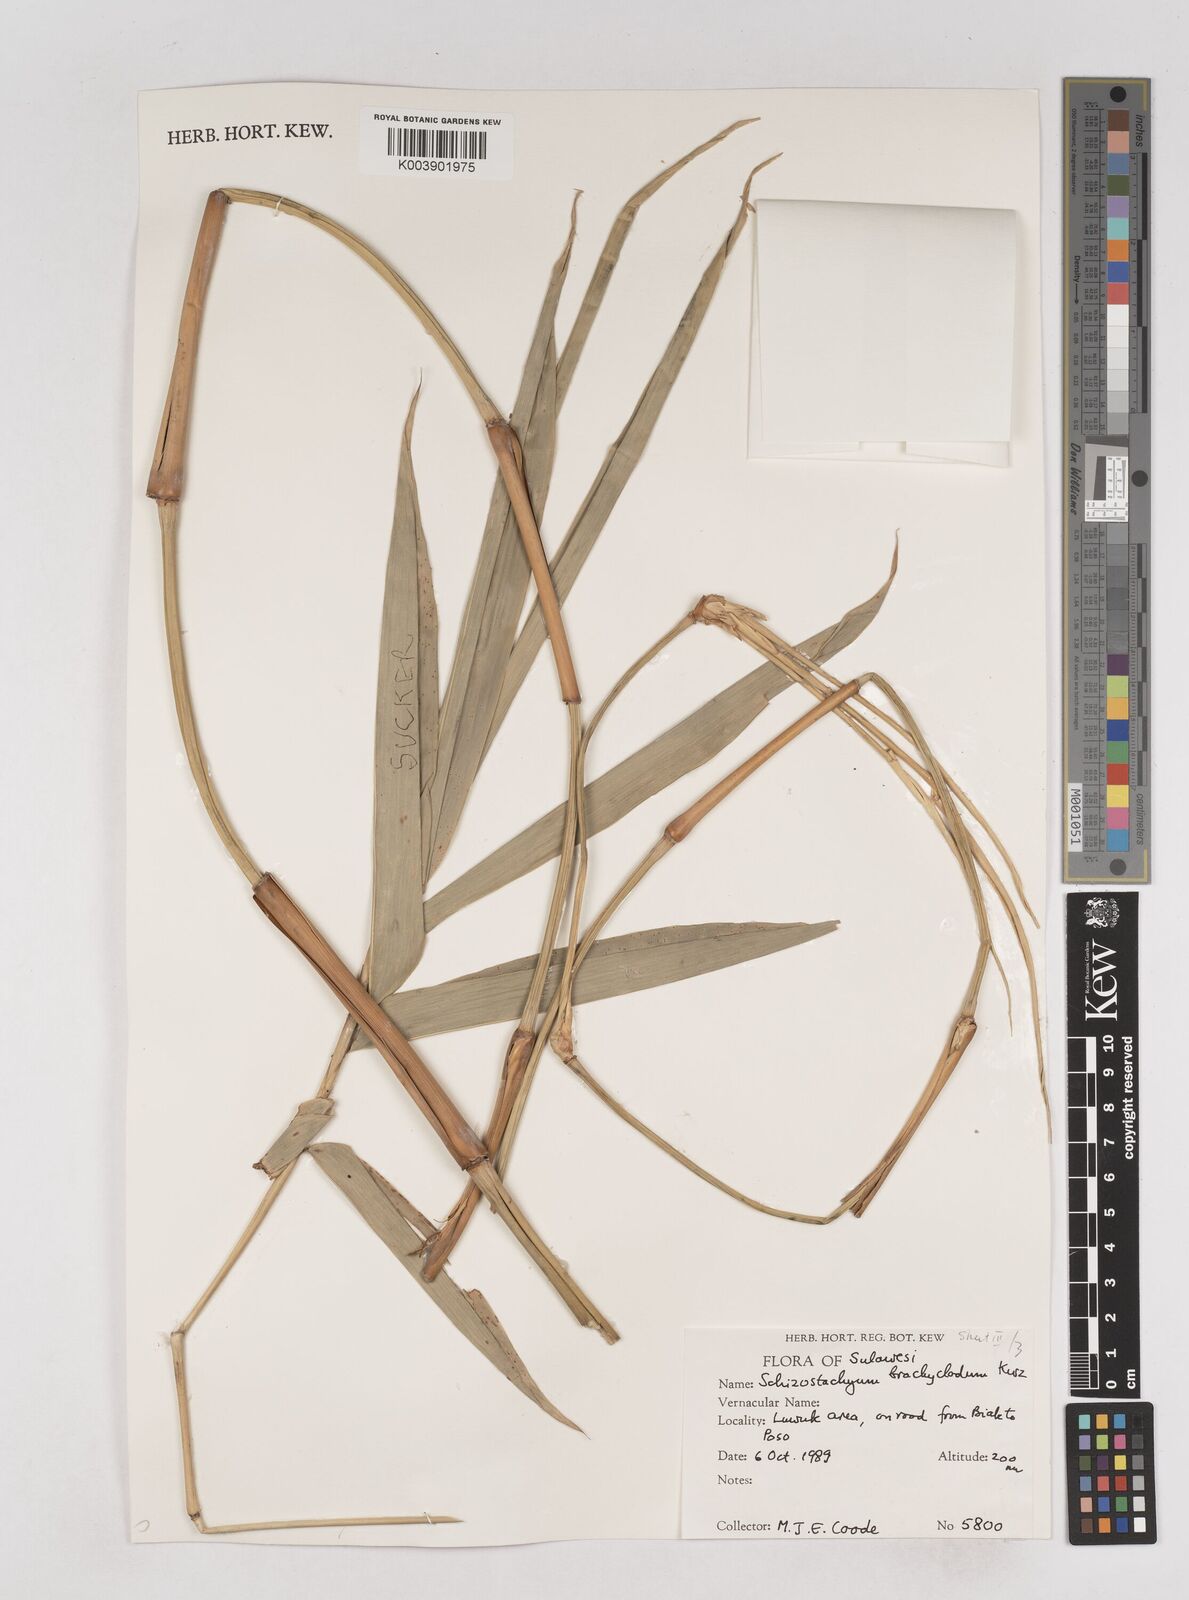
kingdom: Plantae
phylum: Tracheophyta
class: Liliopsida
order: Poales
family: Poaceae
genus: Schizostachyum
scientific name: Schizostachyum brachycladum
